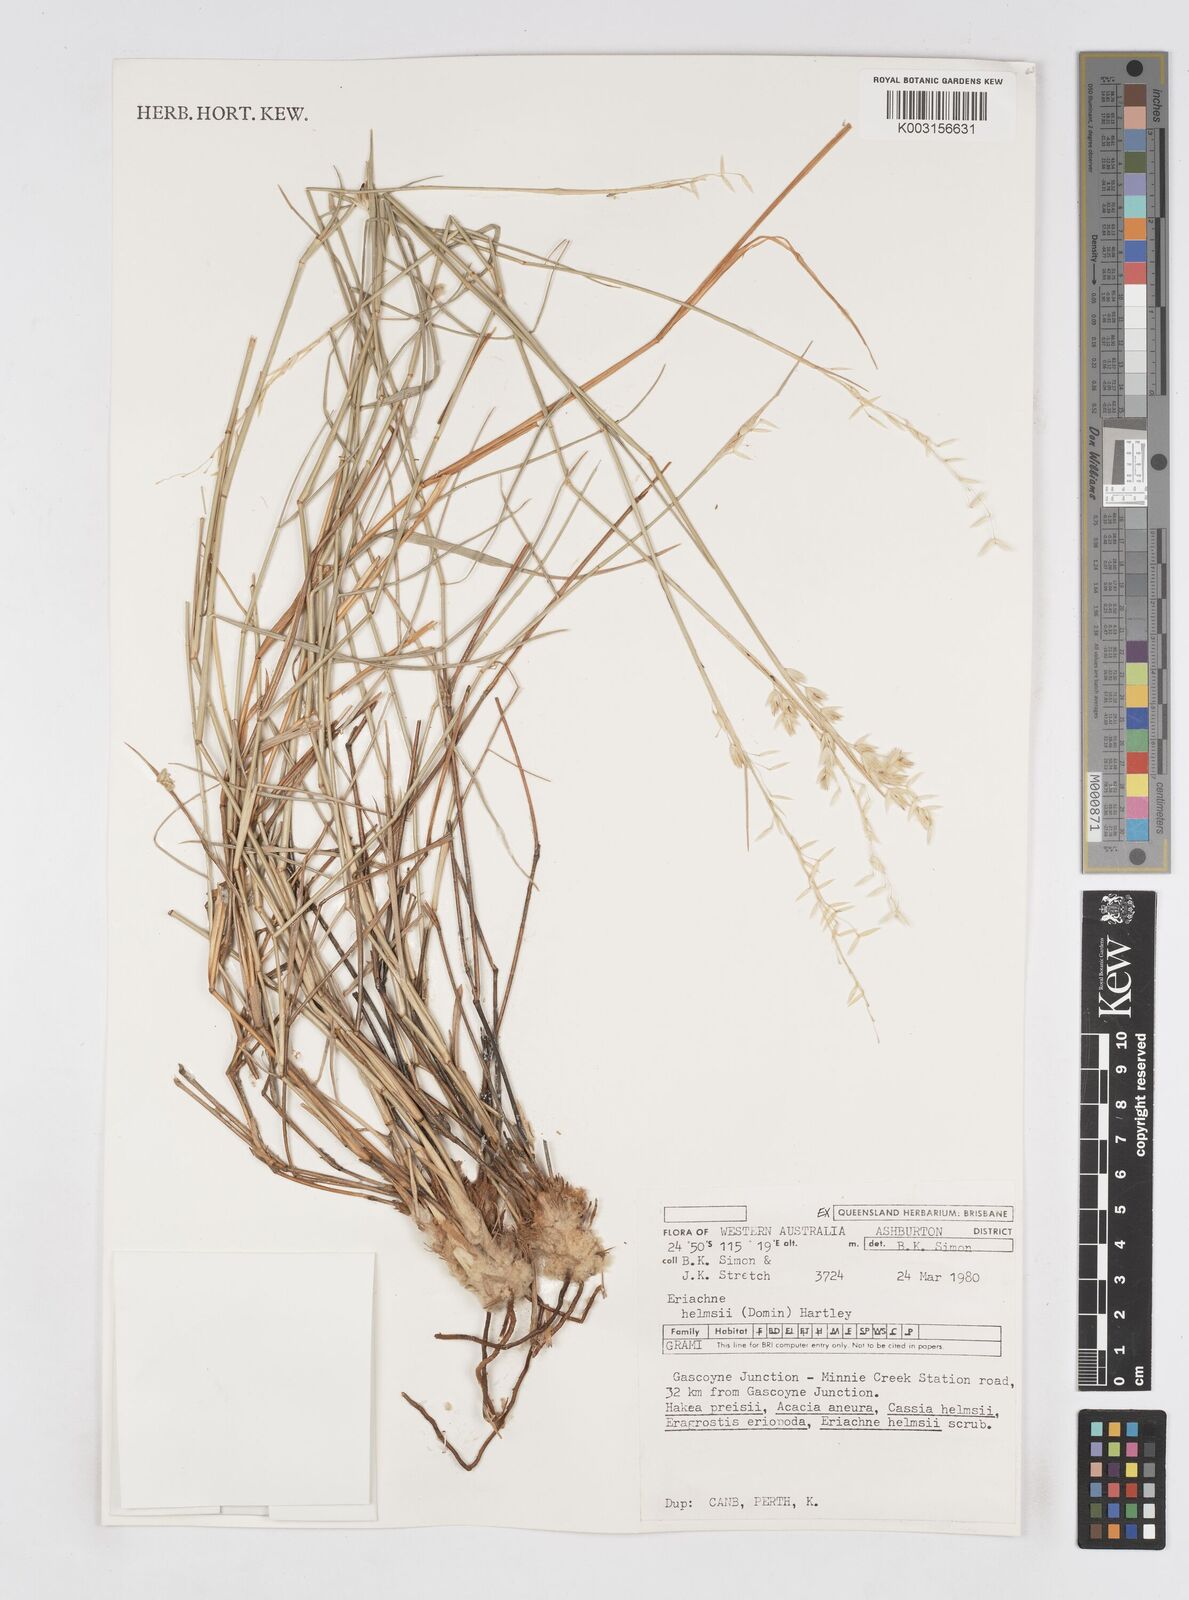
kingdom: Plantae
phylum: Tracheophyta
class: Liliopsida
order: Poales
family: Poaceae
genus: Eriachne
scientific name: Eriachne helmsii
